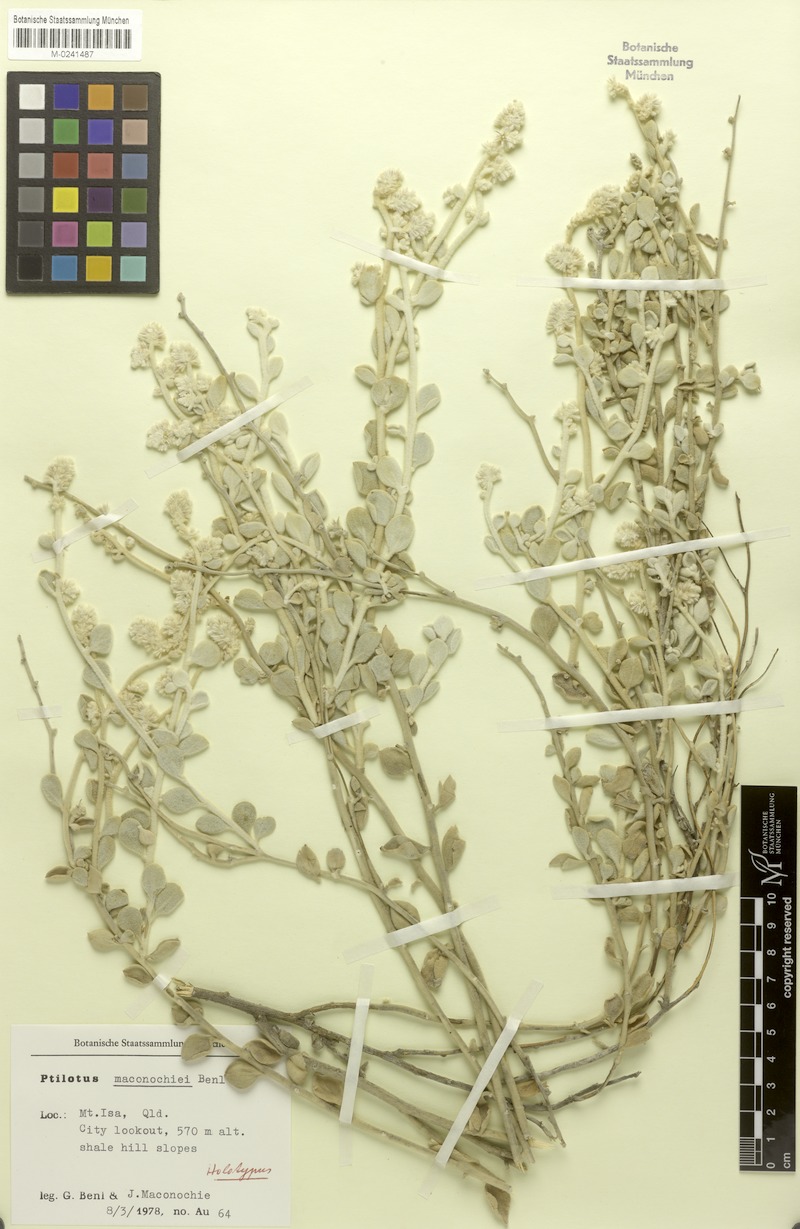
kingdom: Plantae
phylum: Tracheophyta
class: Magnoliopsida
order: Caryophyllales
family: Amaranthaceae
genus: Ptilotus
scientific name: Ptilotus maconochiei
